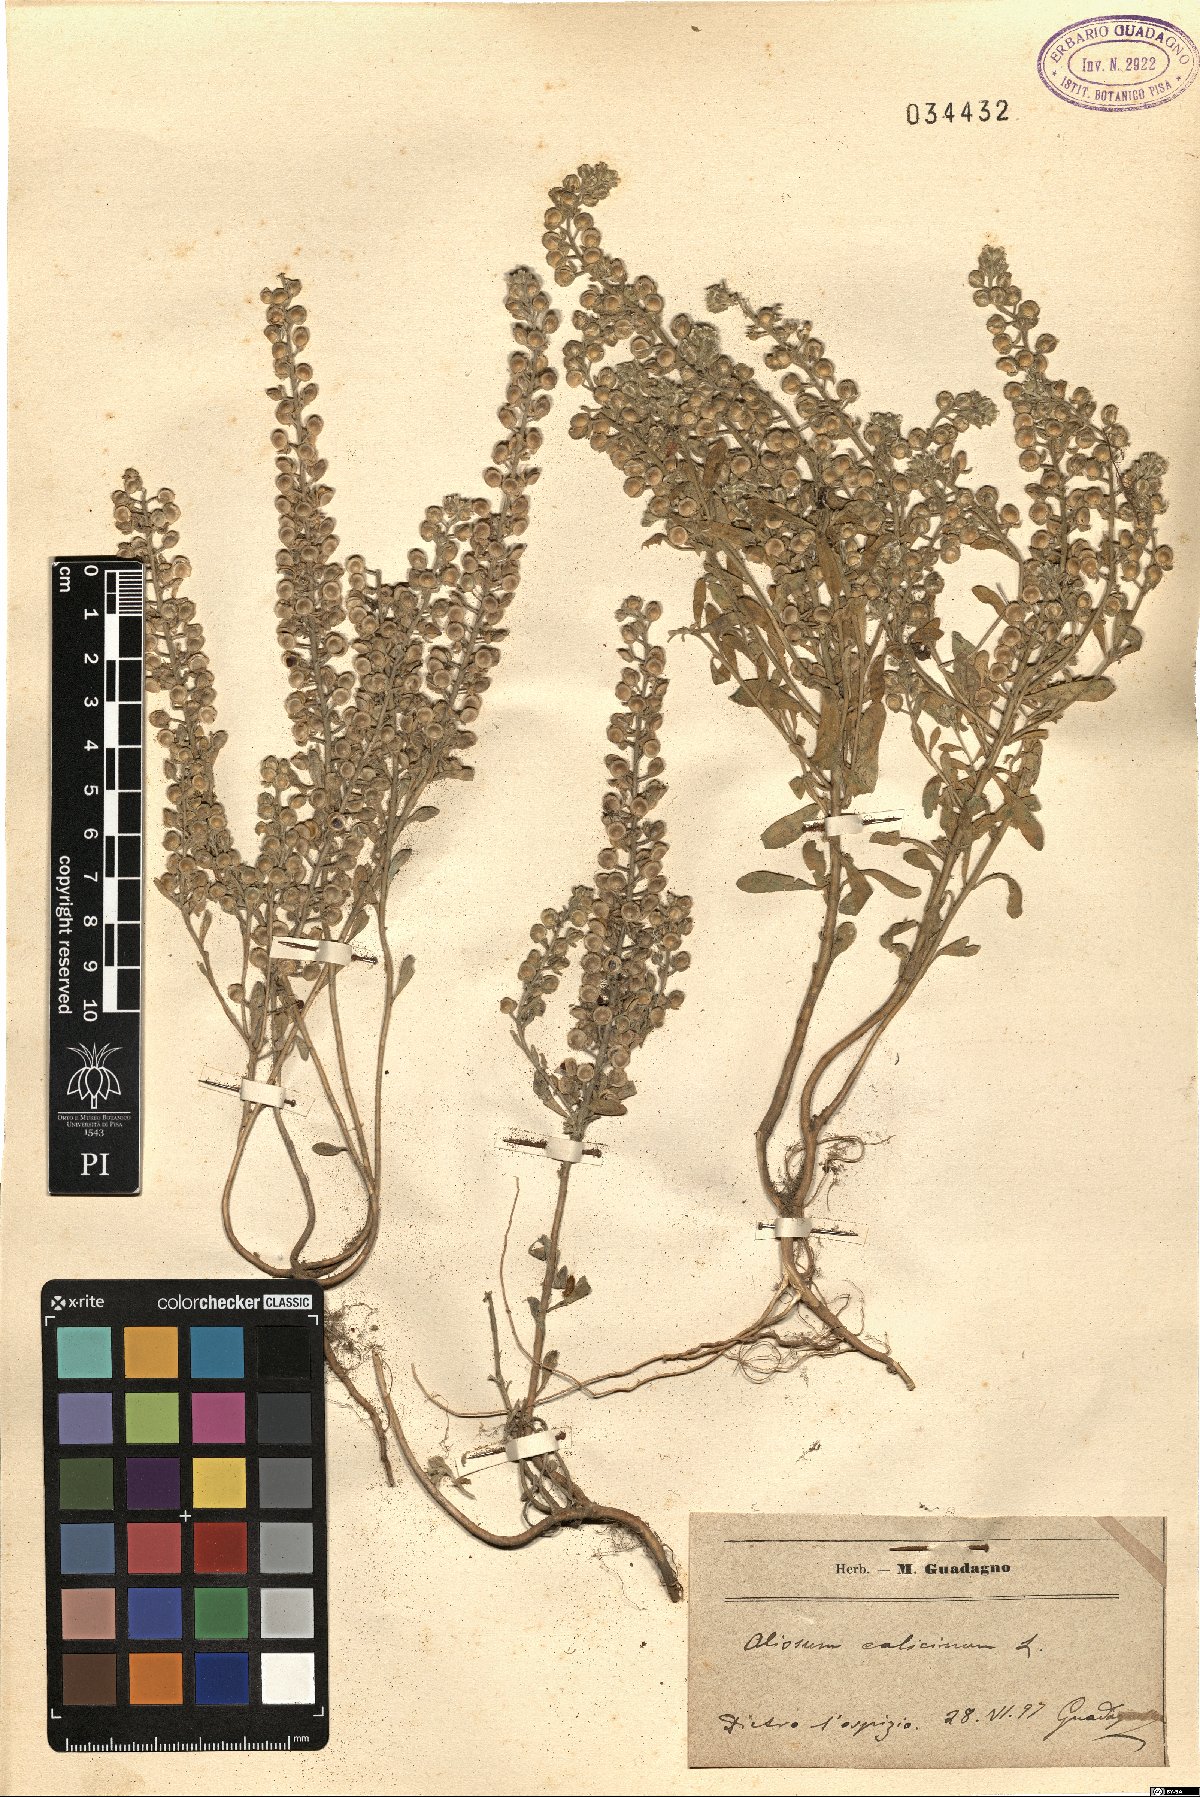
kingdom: Plantae
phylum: Tracheophyta
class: Magnoliopsida
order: Brassicales
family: Brassicaceae
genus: Alyssum
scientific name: Alyssum alyssoides
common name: Small alison
